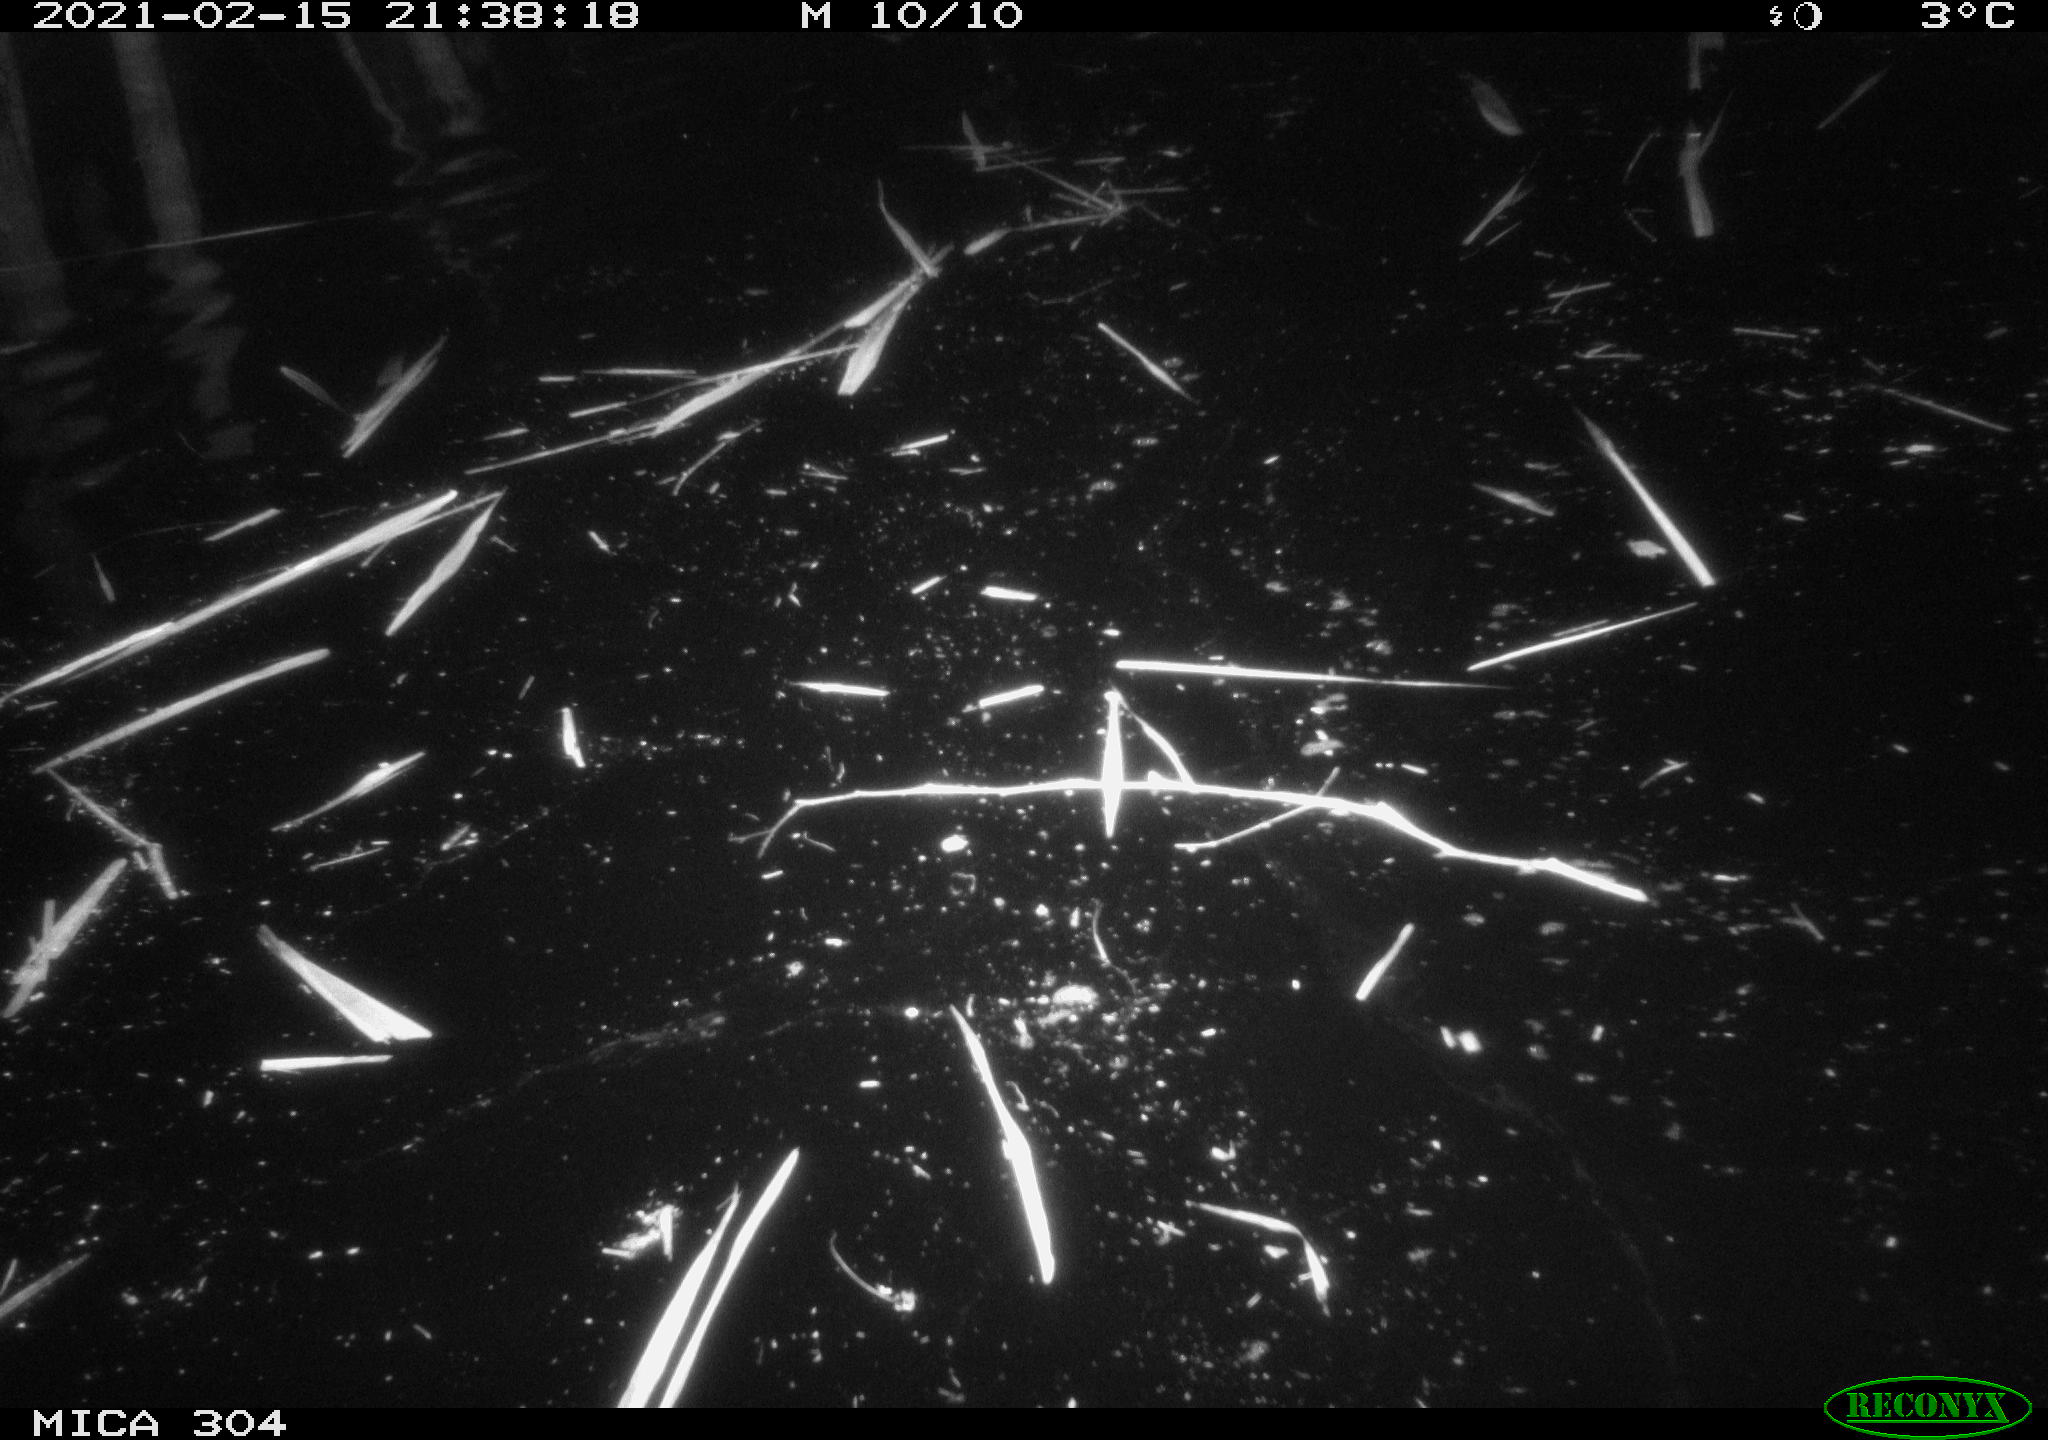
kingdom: Animalia
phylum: Chordata
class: Mammalia
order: Rodentia
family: Cricetidae
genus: Ondatra
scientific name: Ondatra zibethicus
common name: Muskrat
